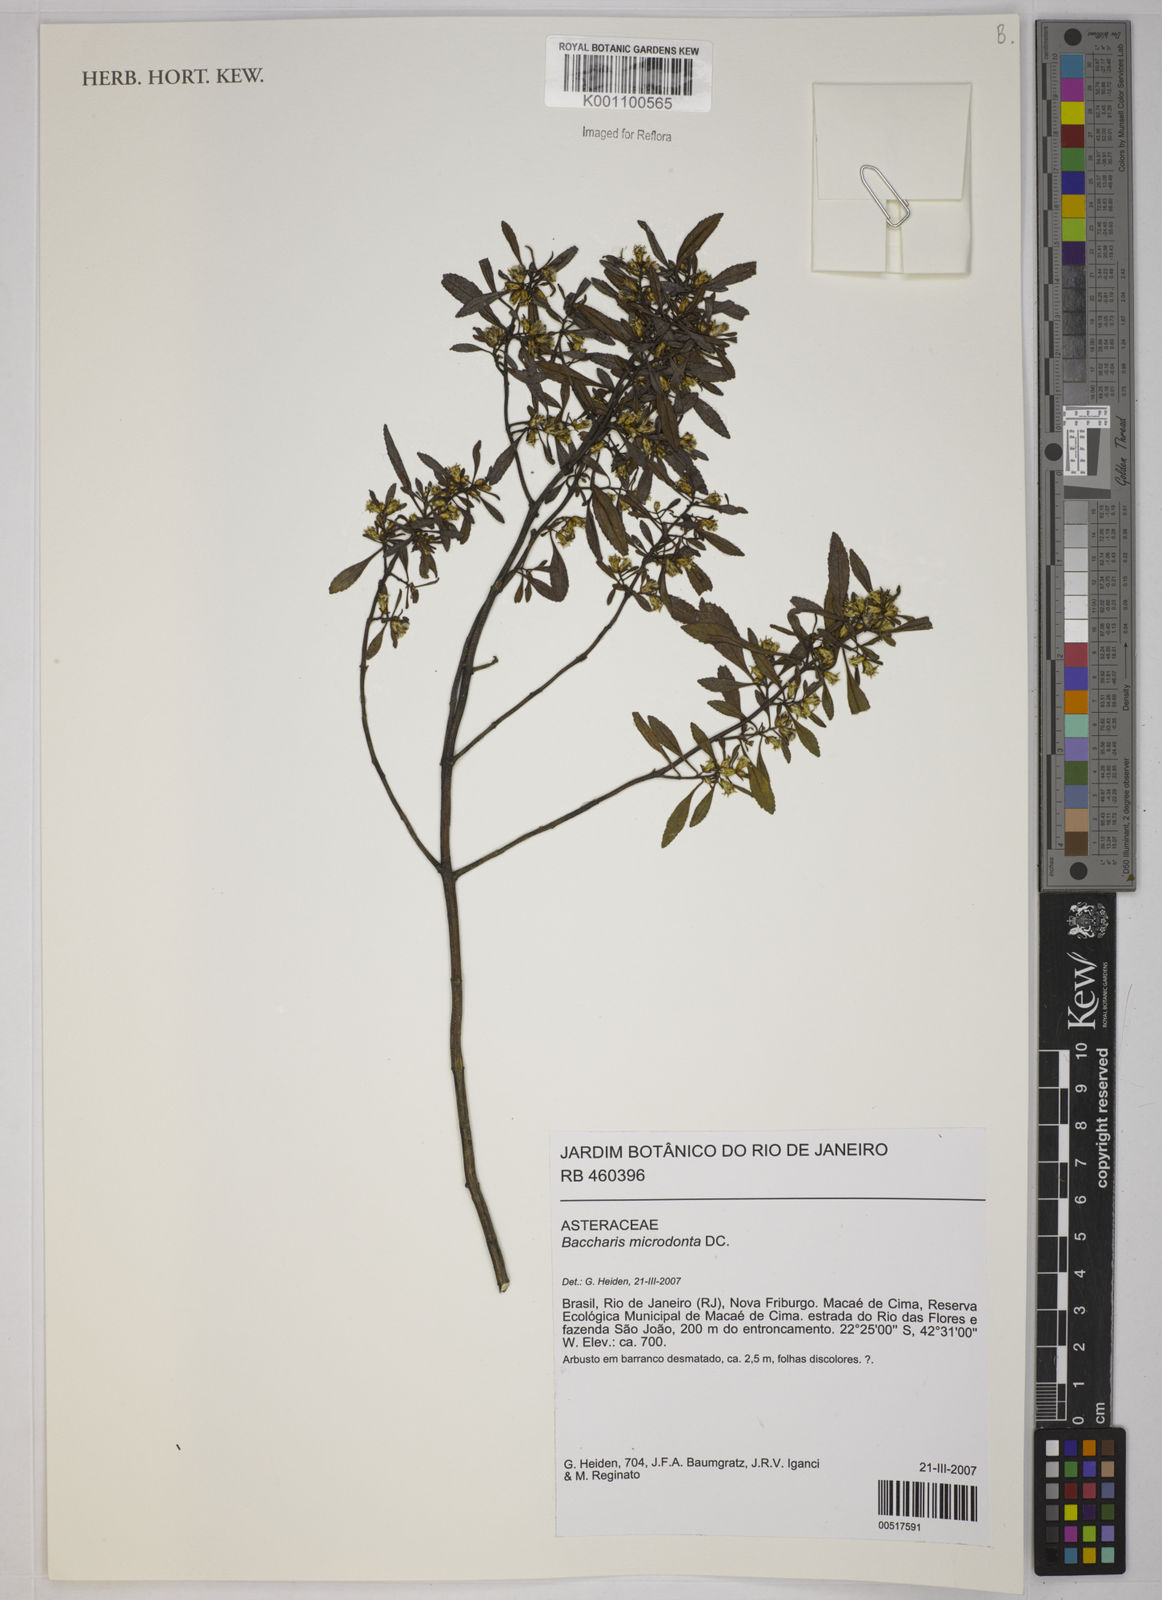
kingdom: Plantae
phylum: Tracheophyta
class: Magnoliopsida
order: Asterales
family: Asteraceae
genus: Baccharis
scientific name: Baccharis microdonta
